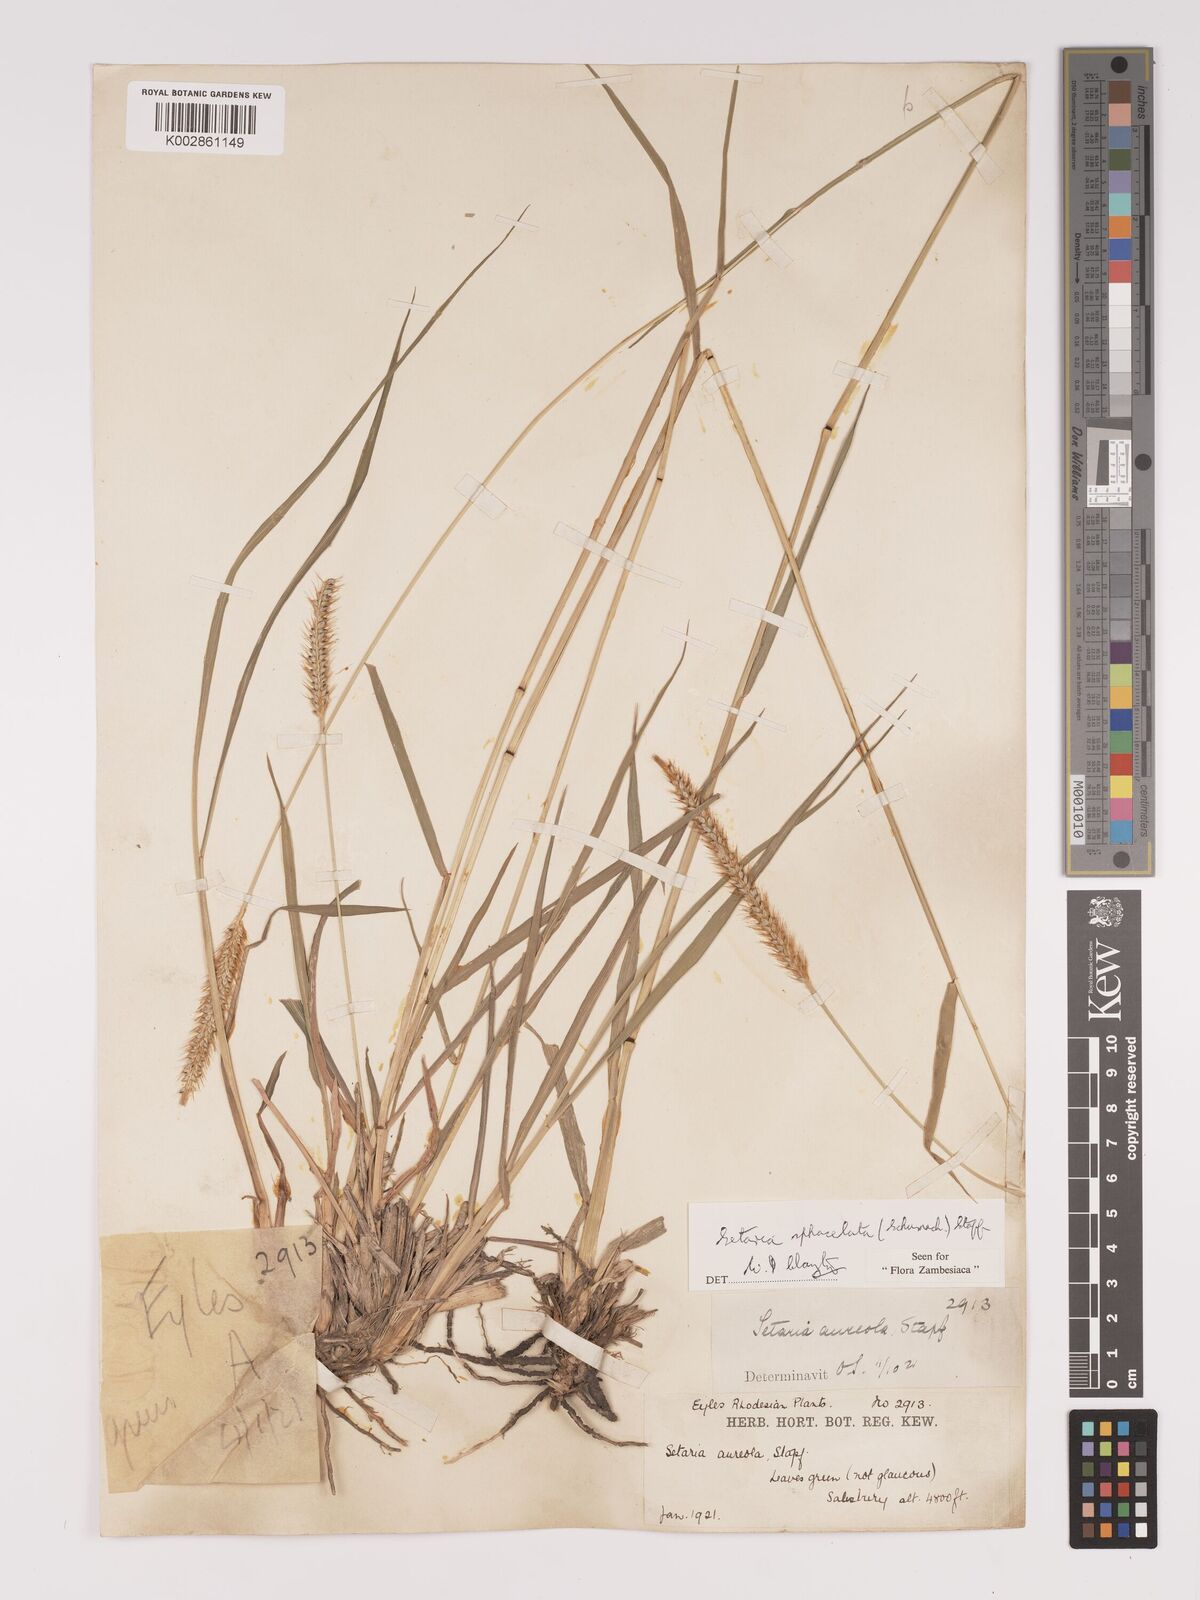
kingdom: Plantae
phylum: Tracheophyta
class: Liliopsida
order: Poales
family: Poaceae
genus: Setaria
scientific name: Setaria sphacelata
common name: African bristlegrass
